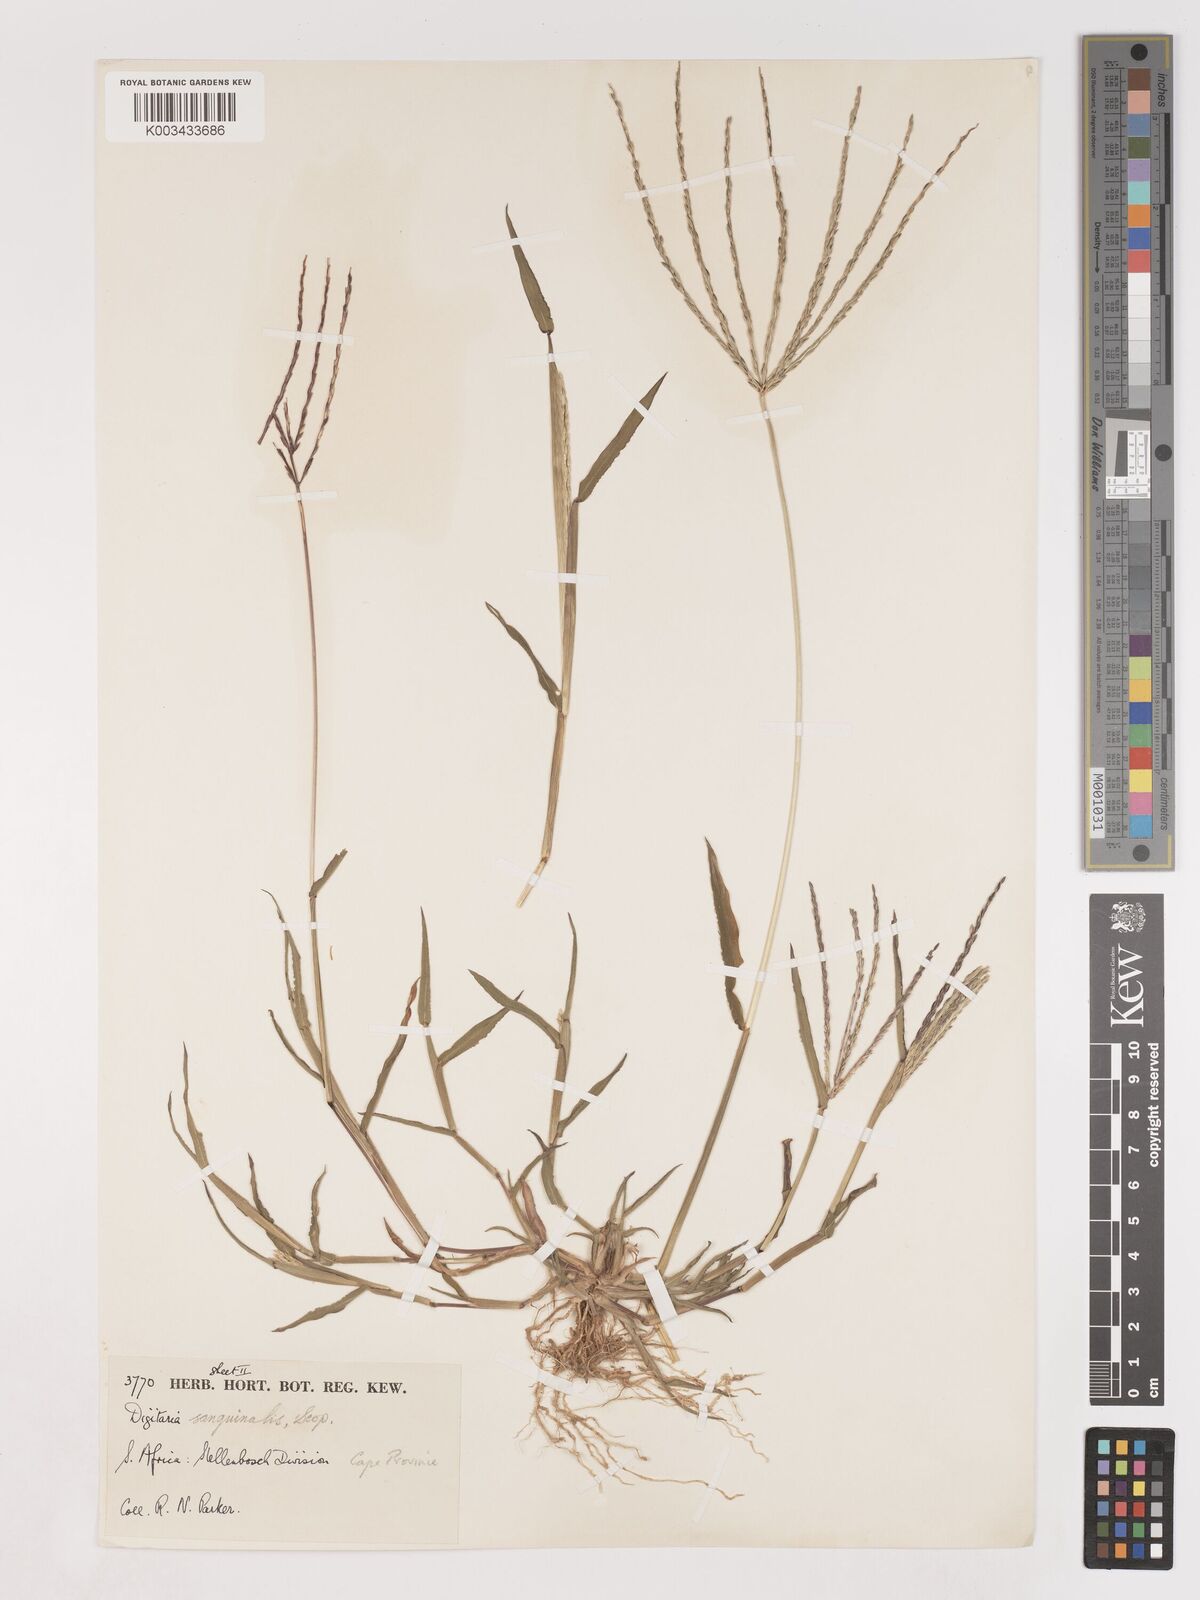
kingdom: Plantae
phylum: Tracheophyta
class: Liliopsida
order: Poales
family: Poaceae
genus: Digitaria
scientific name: Digitaria sanguinalis
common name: Hairy crabgrass
